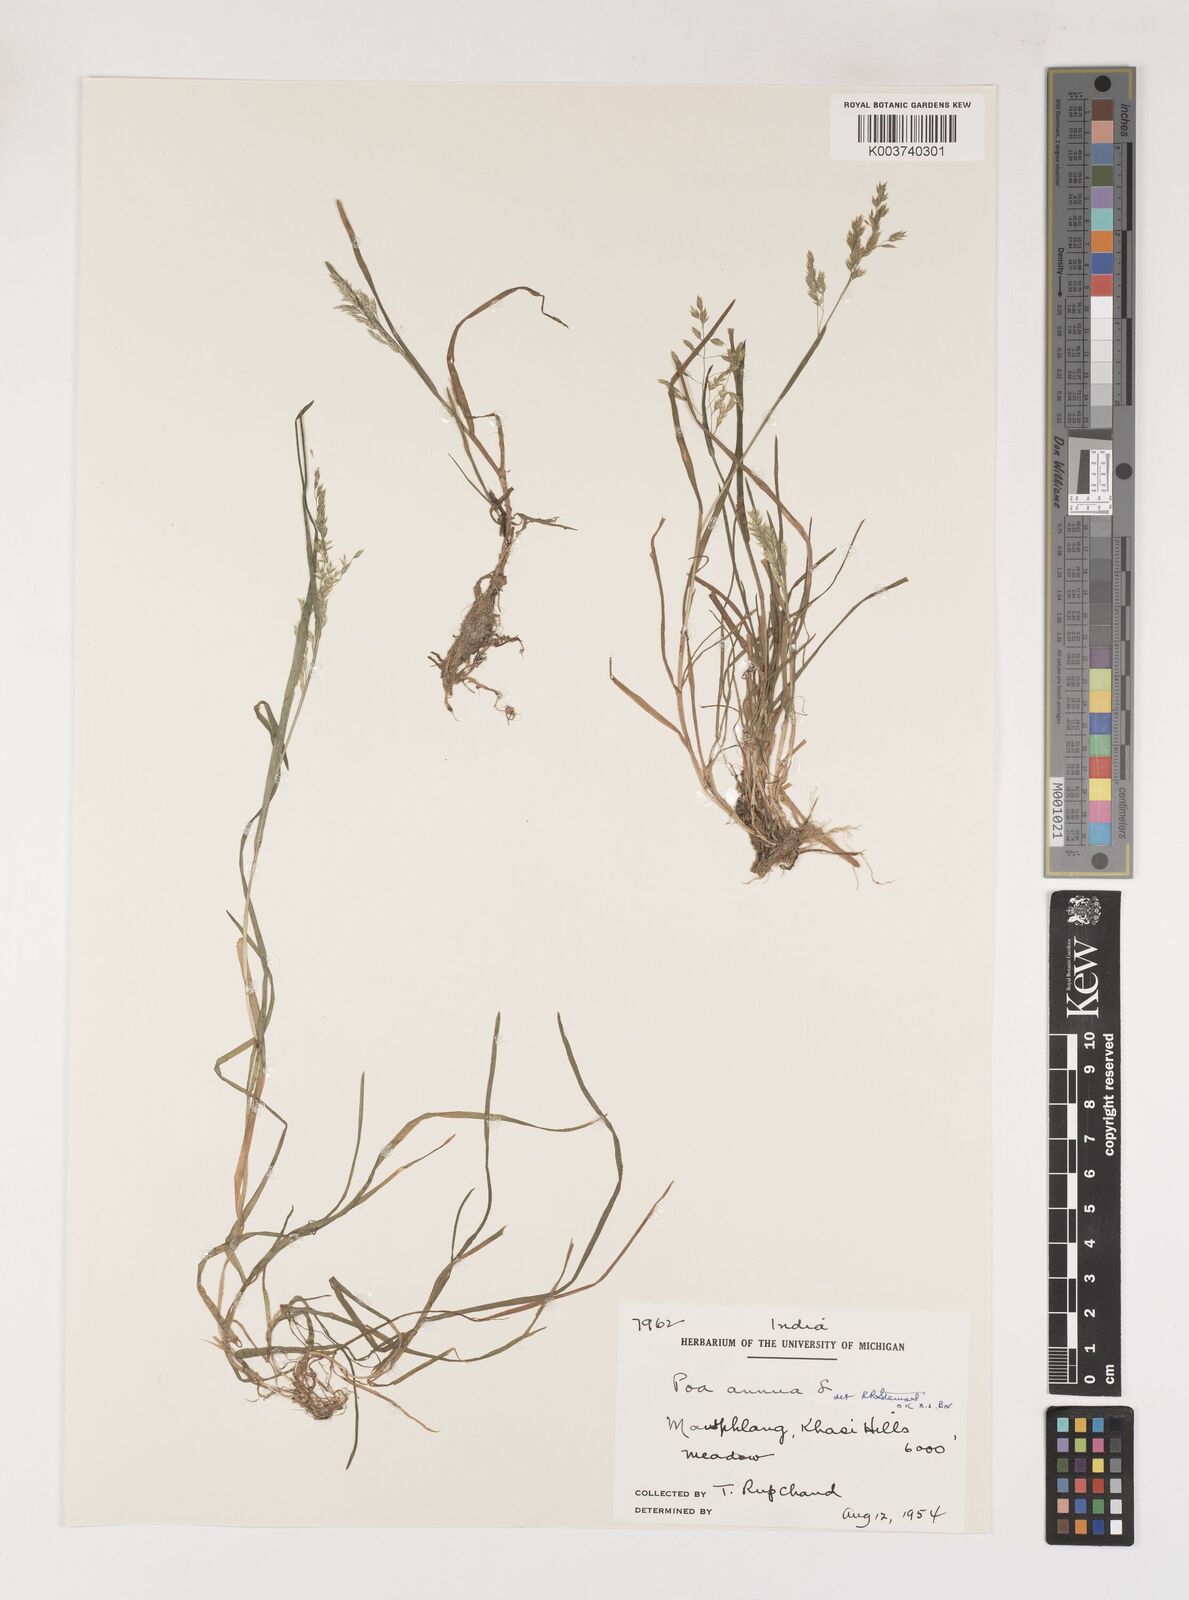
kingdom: Plantae
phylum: Tracheophyta
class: Liliopsida
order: Poales
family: Poaceae
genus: Poa
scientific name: Poa annua
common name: Annual bluegrass
